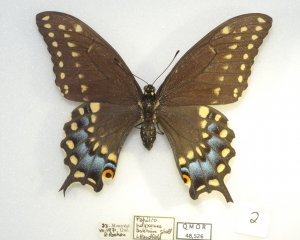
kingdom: Animalia
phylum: Arthropoda
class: Insecta
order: Lepidoptera
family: Papilionidae
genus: Papilio
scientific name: Papilio polyxenes
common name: Black Swallowtail
